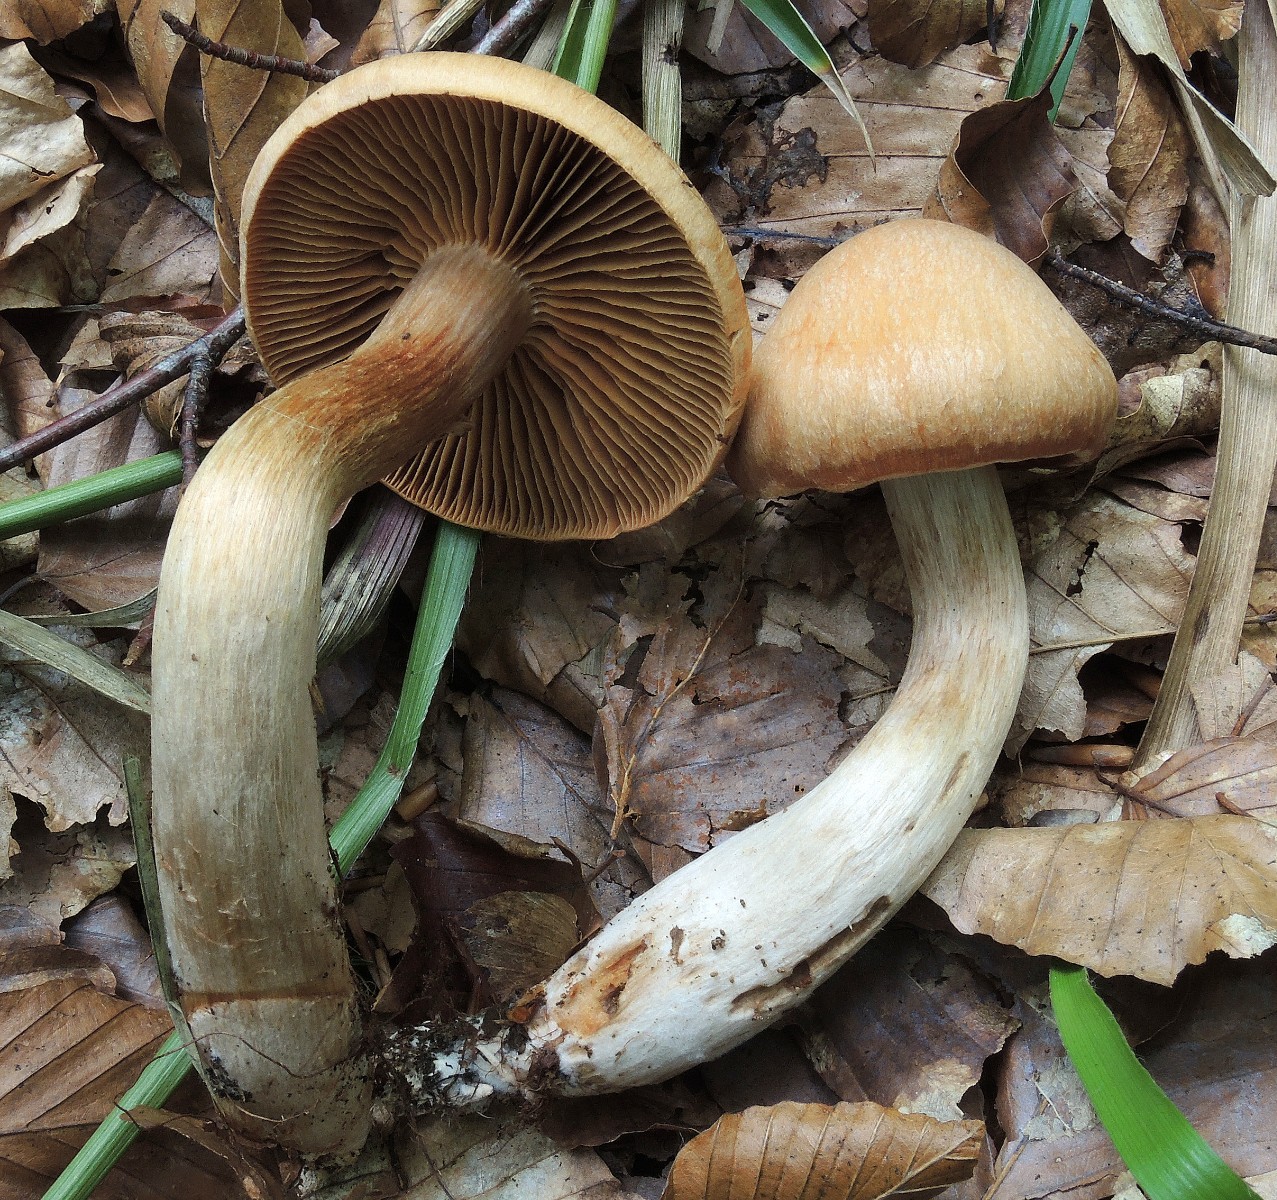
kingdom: Fungi
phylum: Basidiomycota
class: Agaricomycetes
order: Agaricales
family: Cortinariaceae
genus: Cortinarius
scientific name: Cortinarius balaustinus
